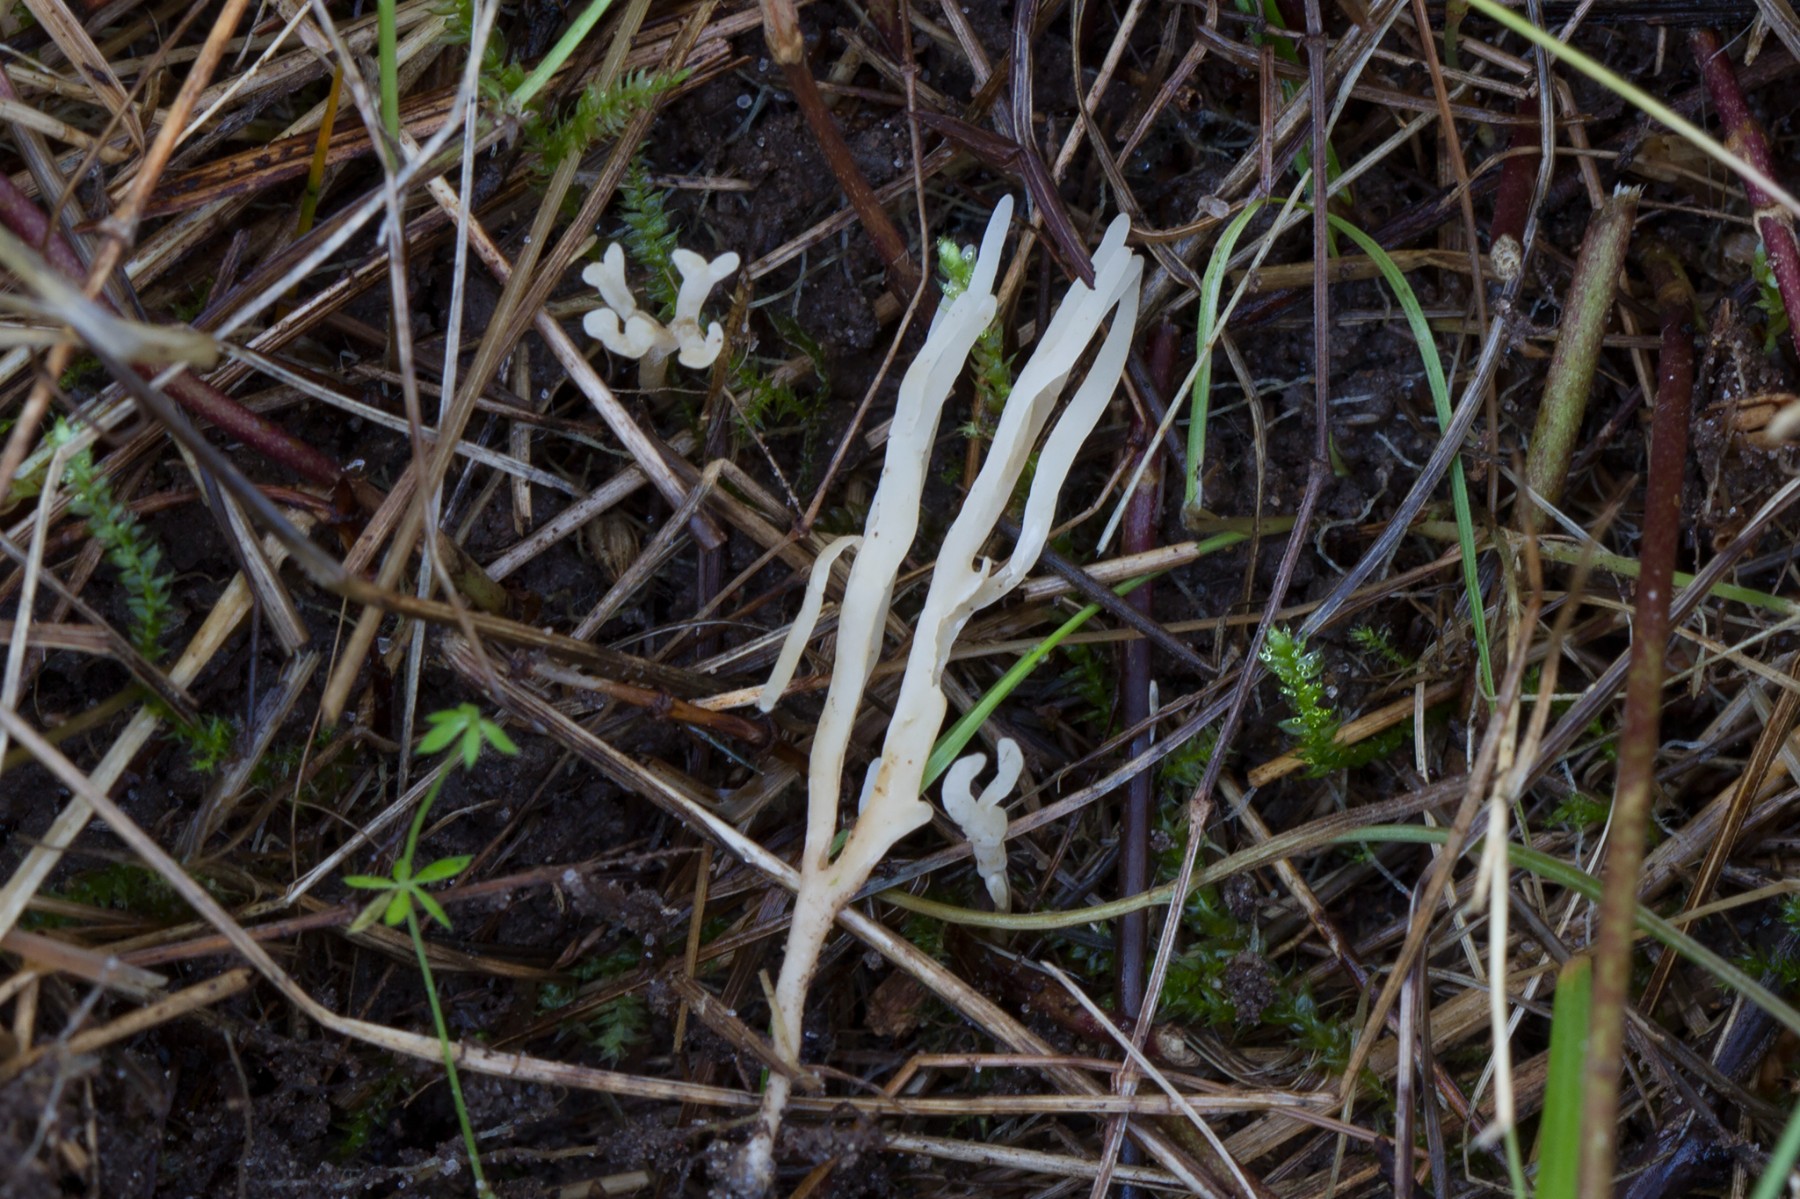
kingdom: Fungi
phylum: Basidiomycota
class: Agaricomycetes
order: Agaricales
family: Clavariaceae
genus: Ramariopsis
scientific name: Ramariopsis tenuicula
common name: spinkel køllesvamp
